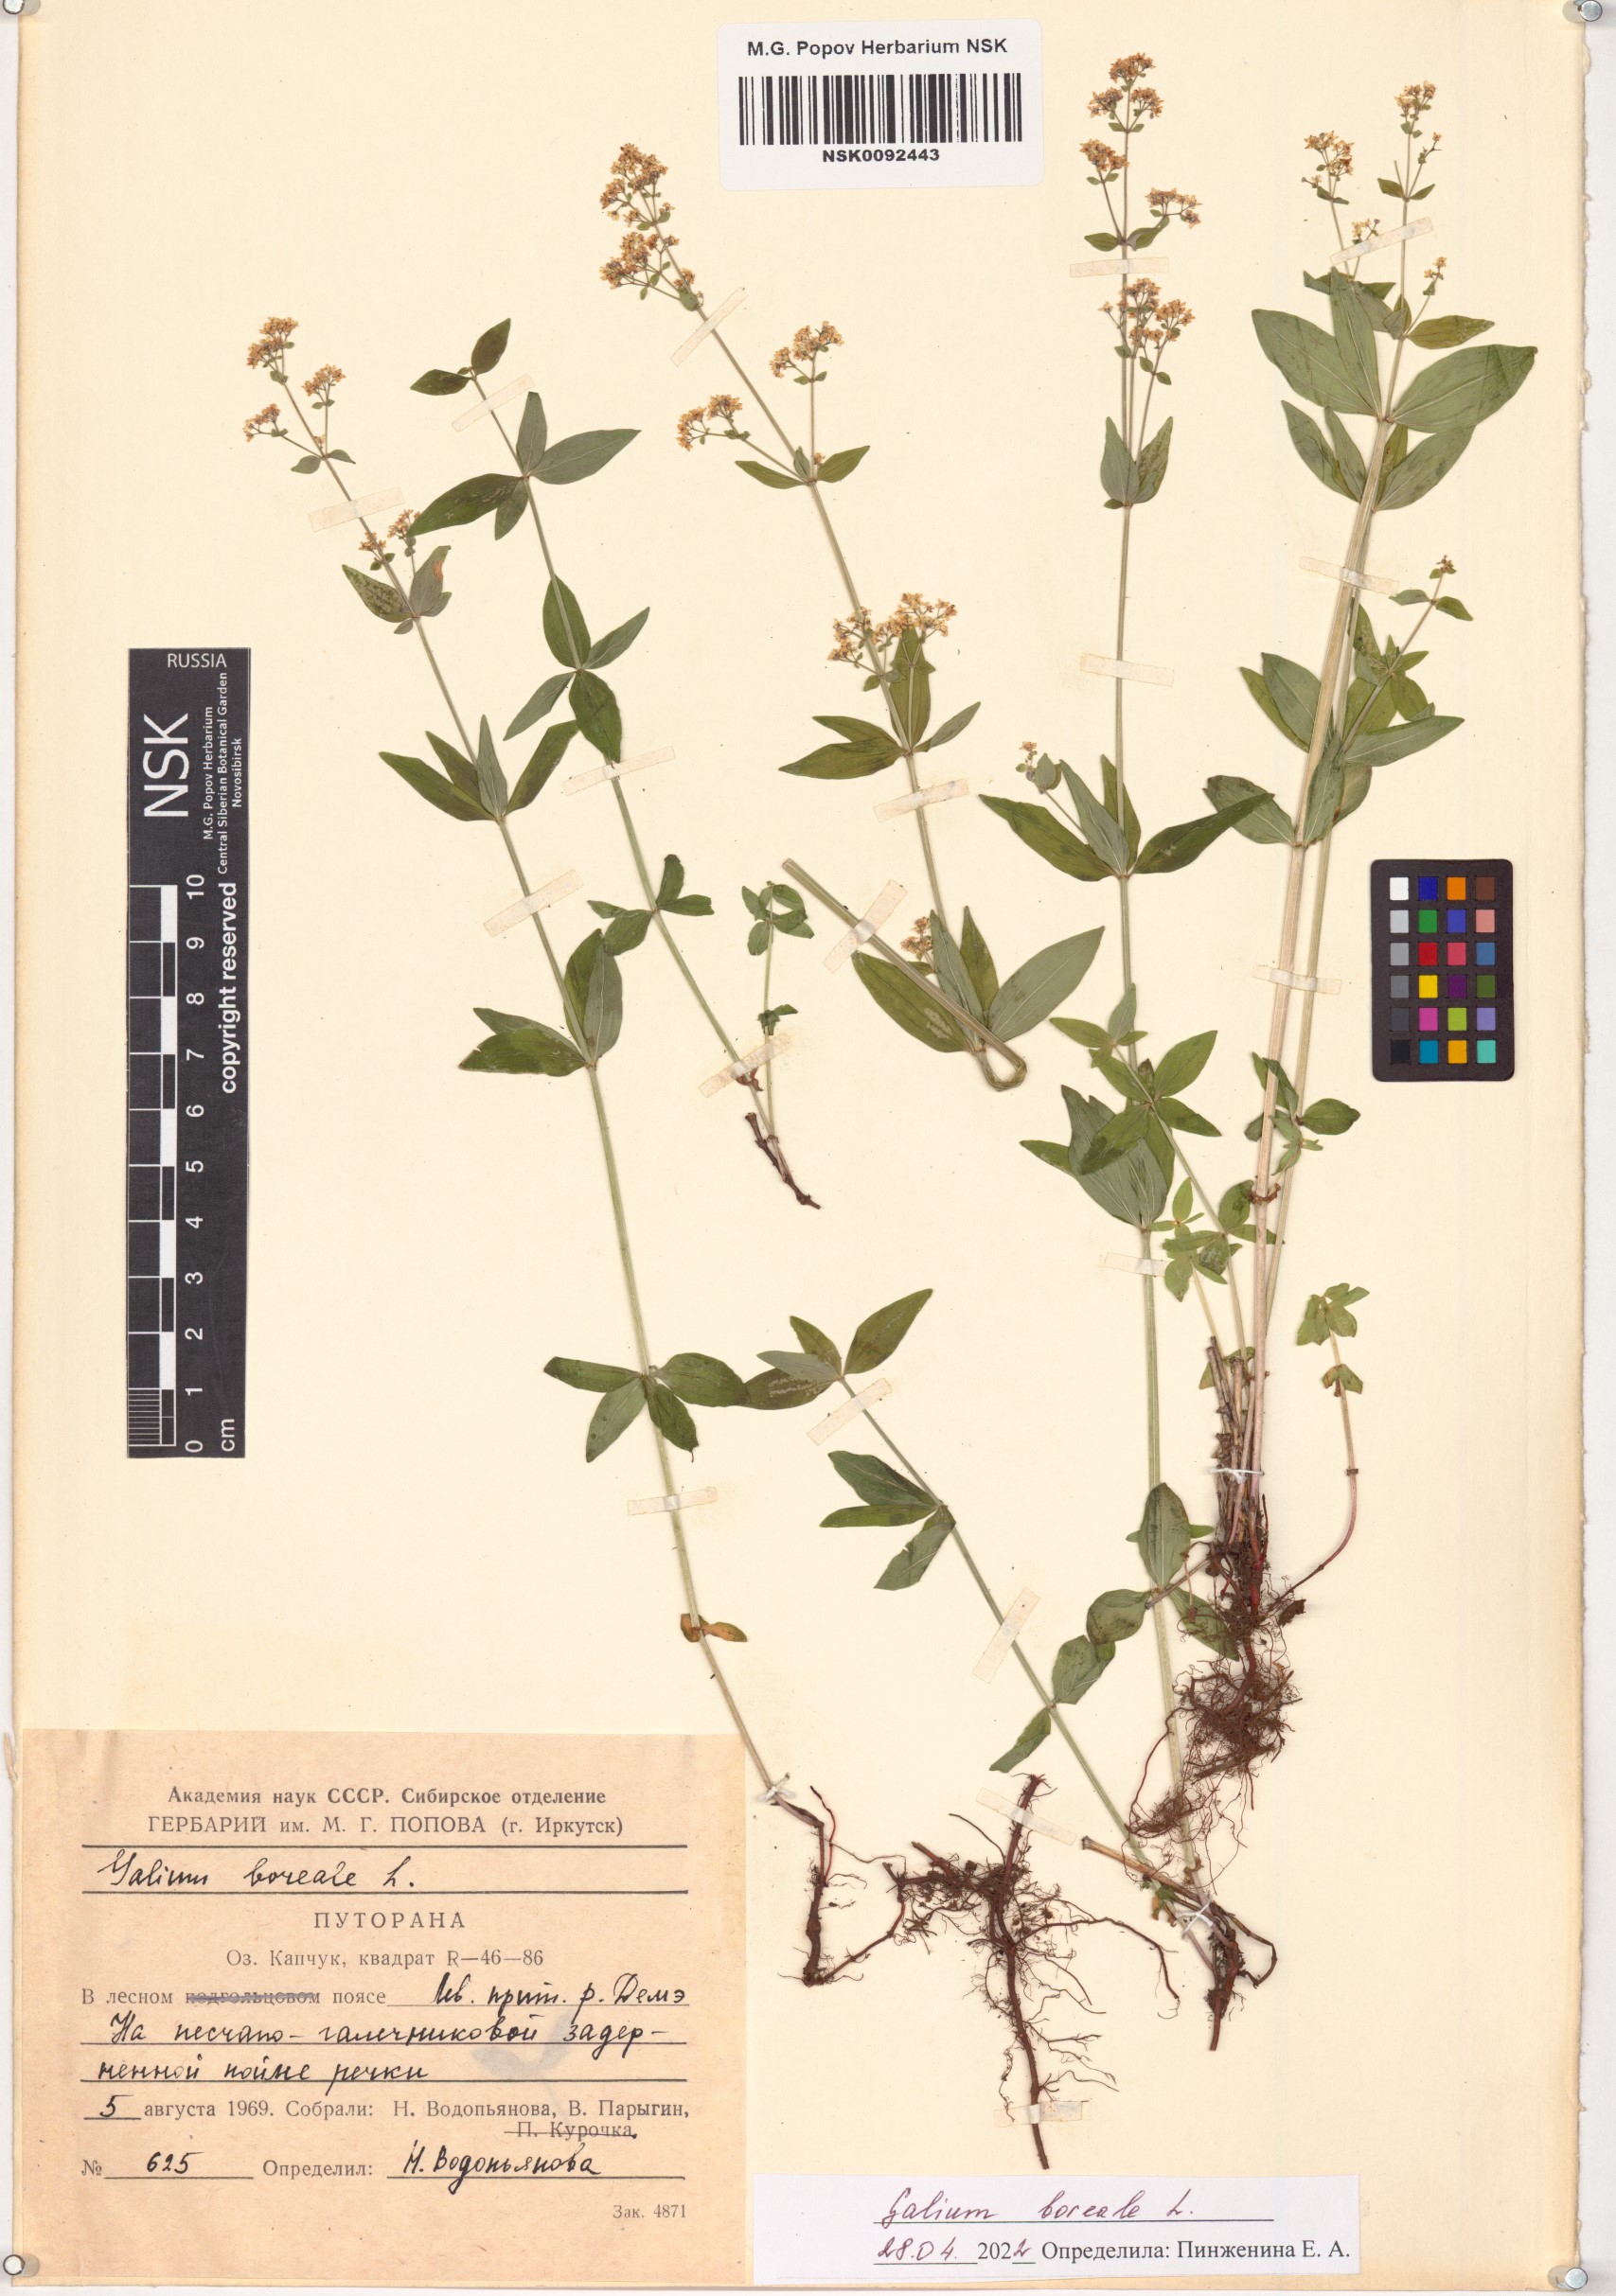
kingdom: Plantae
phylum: Tracheophyta
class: Magnoliopsida
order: Gentianales
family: Rubiaceae
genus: Galium
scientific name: Galium boreale
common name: Northern bedstraw
